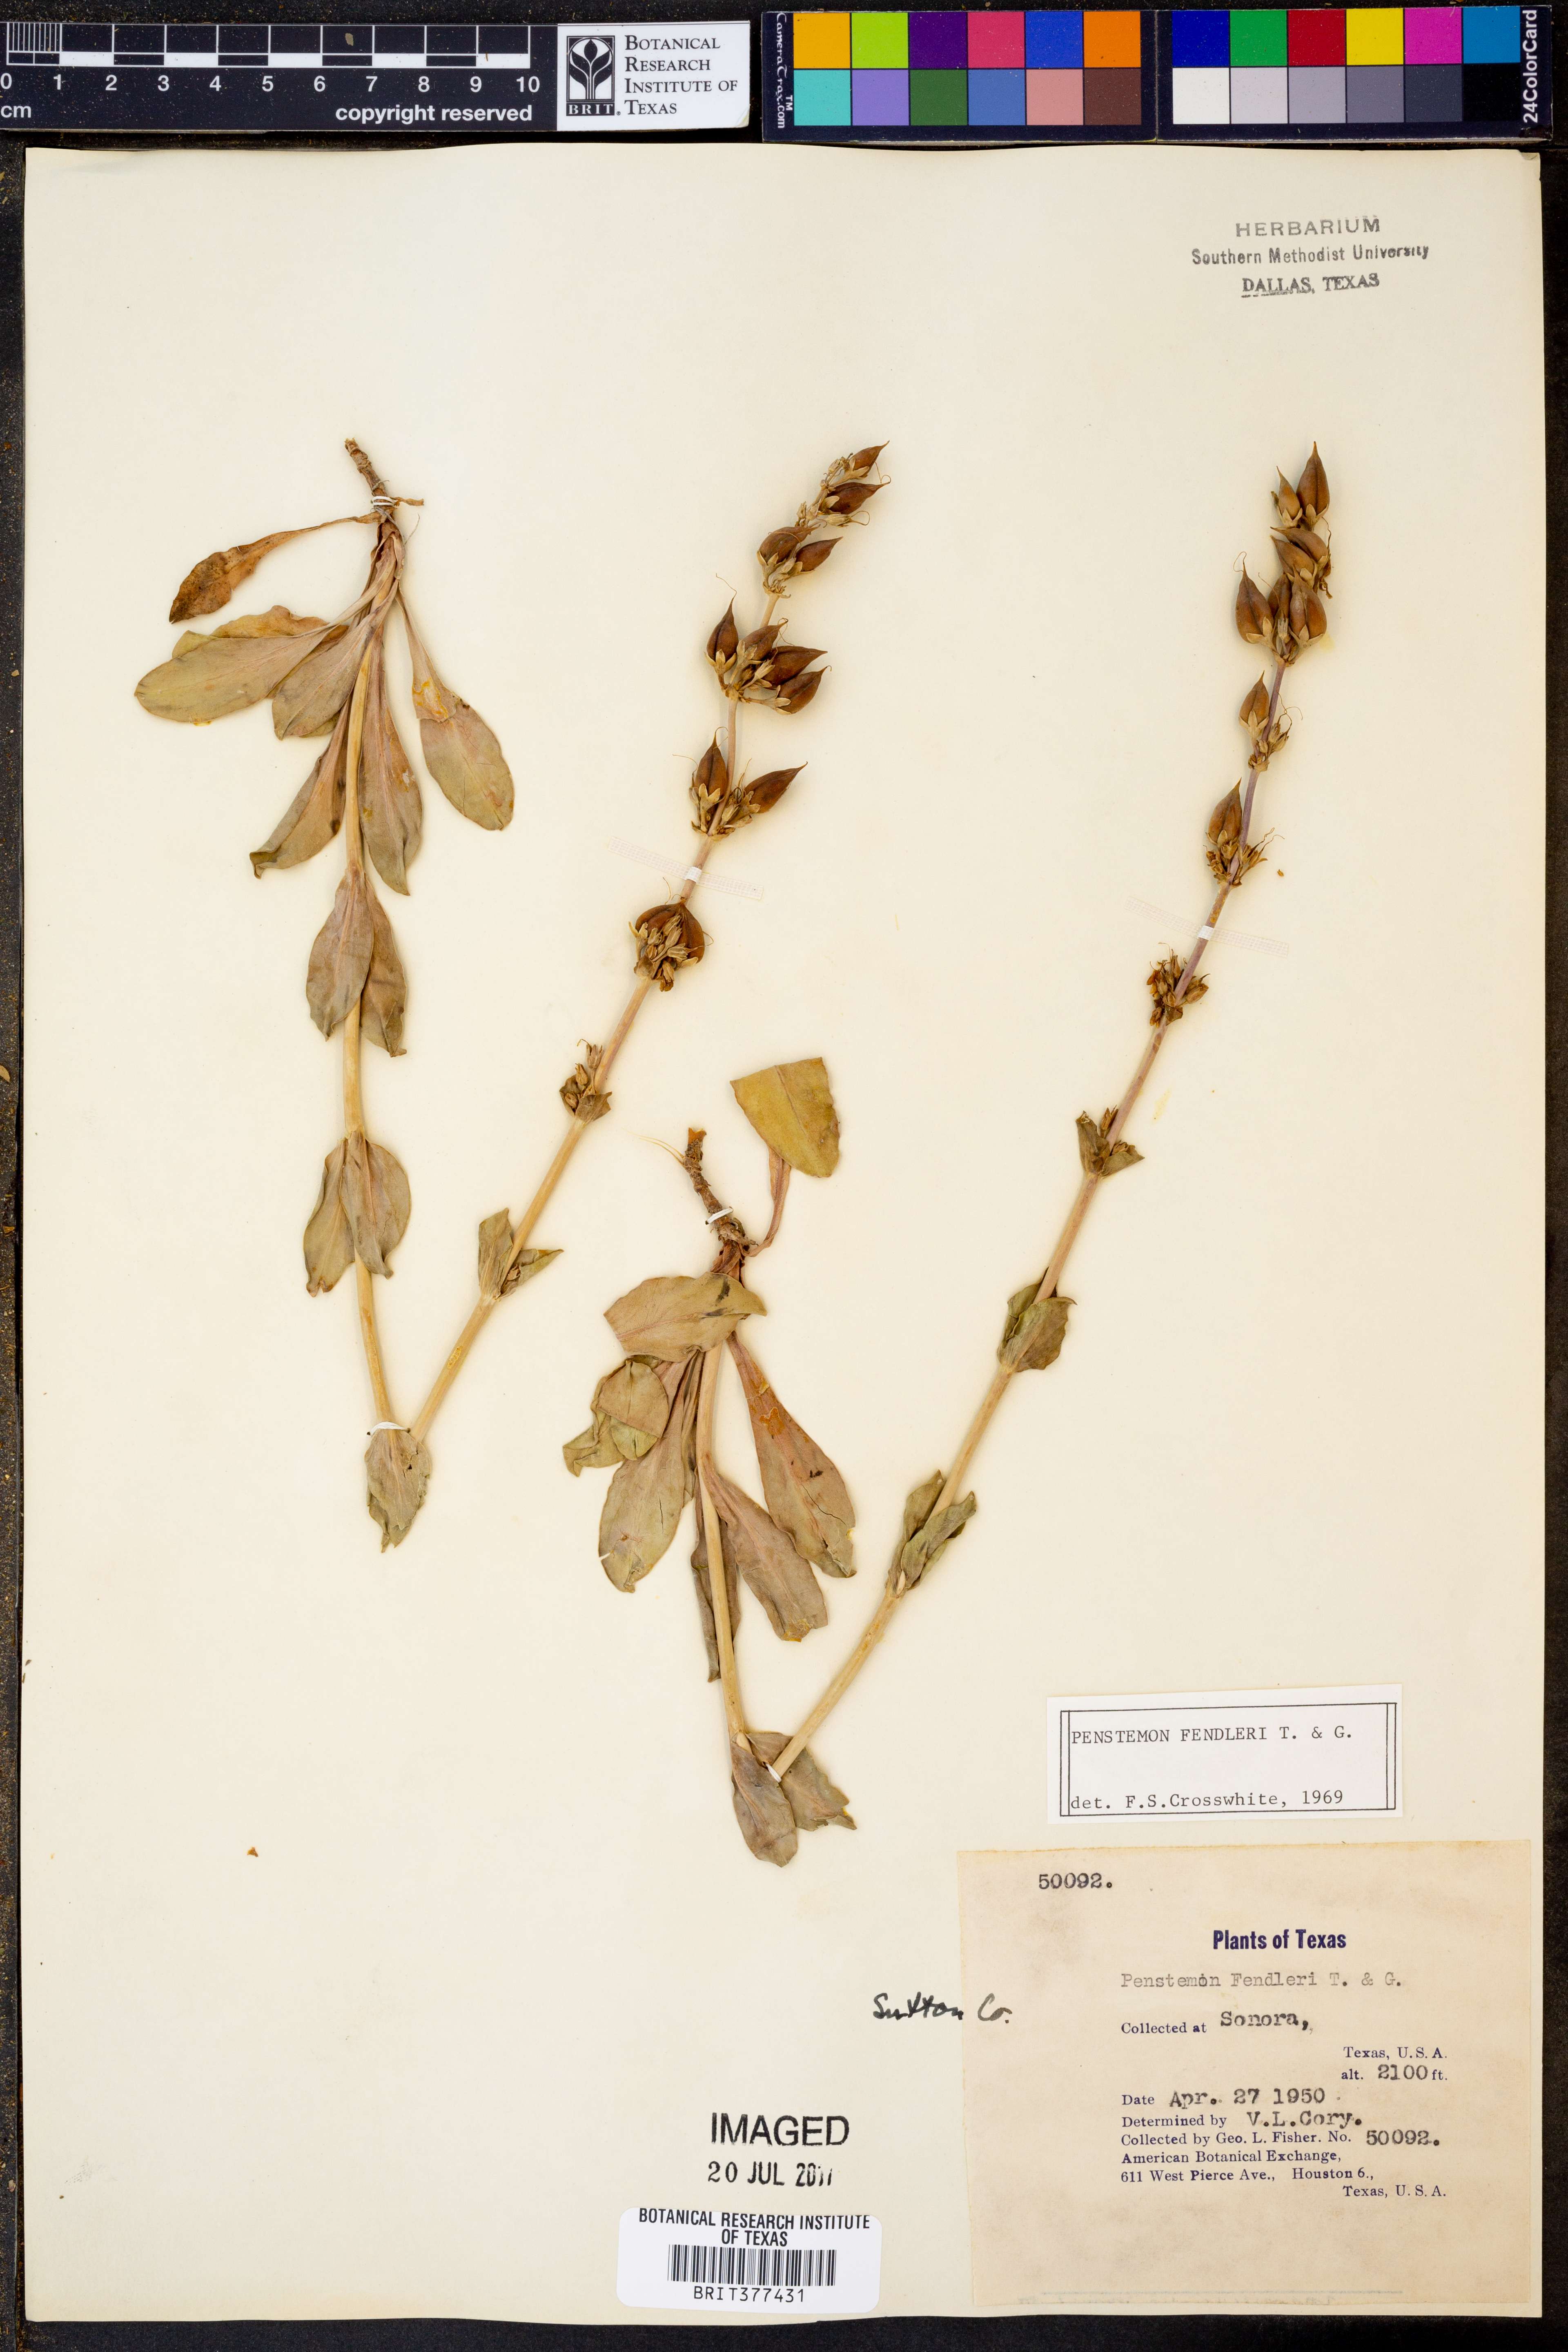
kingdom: Plantae
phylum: Tracheophyta
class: Magnoliopsida
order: Lamiales
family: Plantaginaceae
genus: Penstemon
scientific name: Penstemon fendleri
